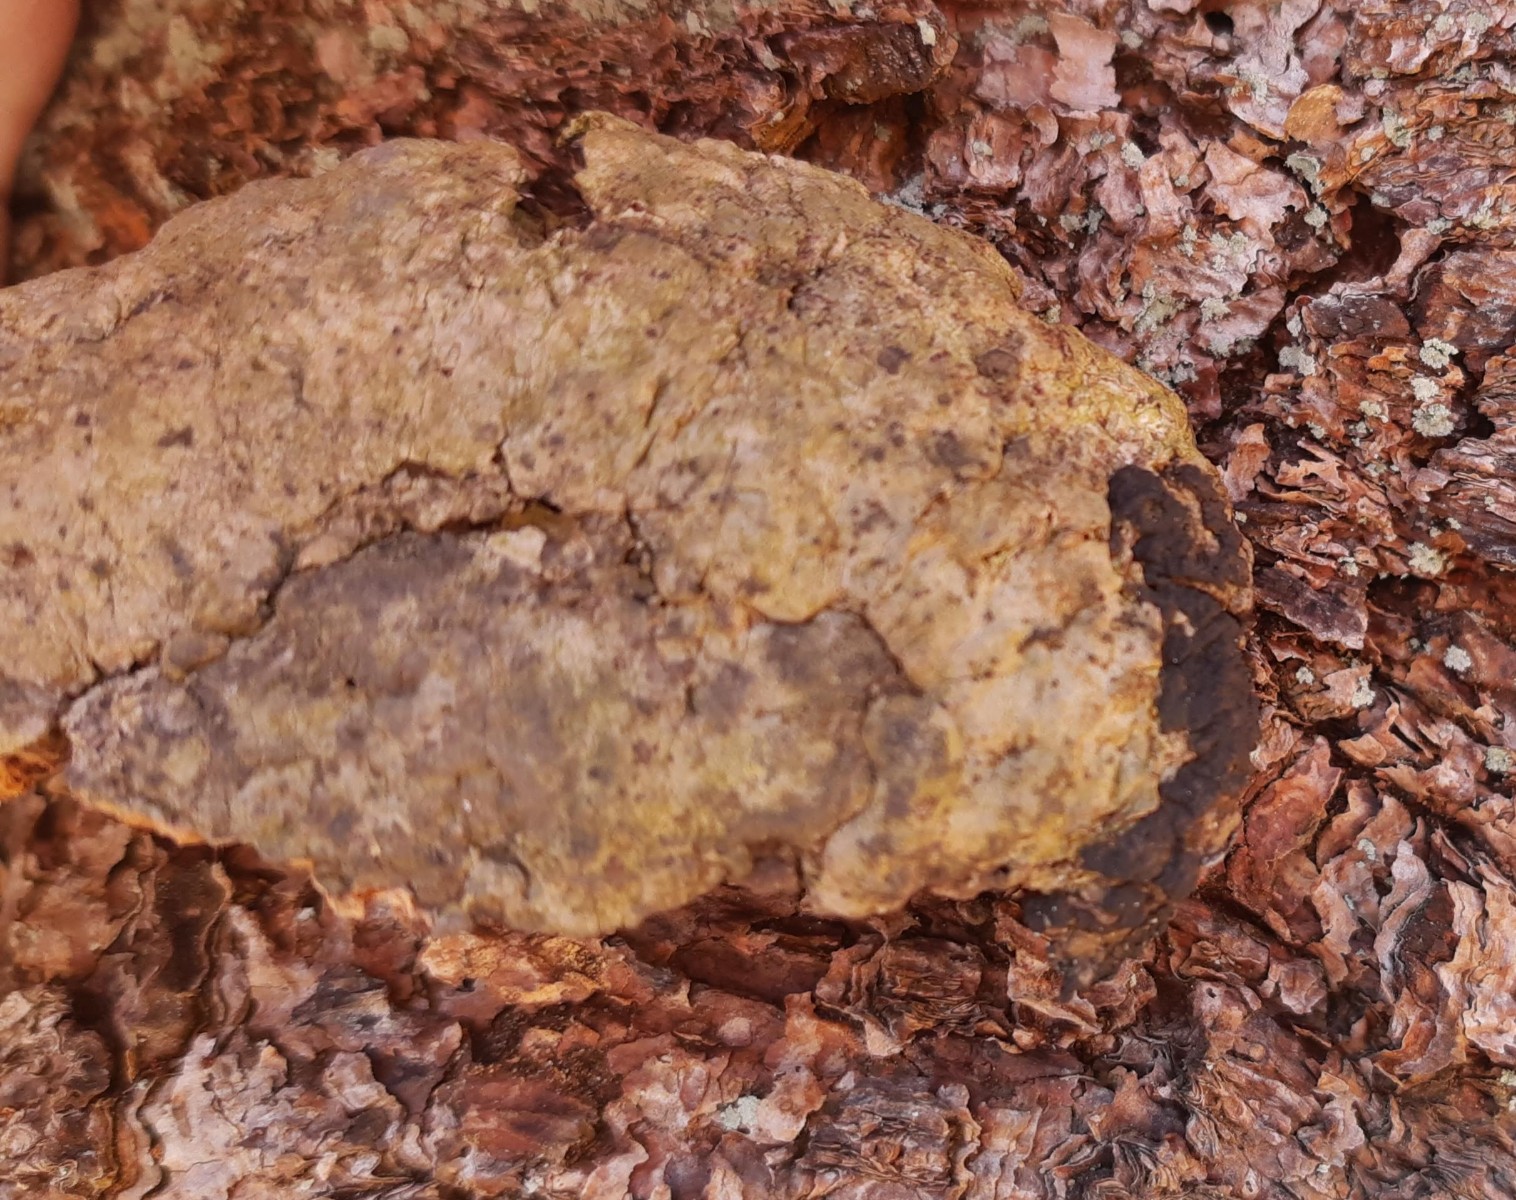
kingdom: Fungi
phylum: Ascomycota
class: Sordariomycetes
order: Xylariales
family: Xylariaceae
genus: Nemania
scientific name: Nemania serpens
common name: hovpore-kuldyne
